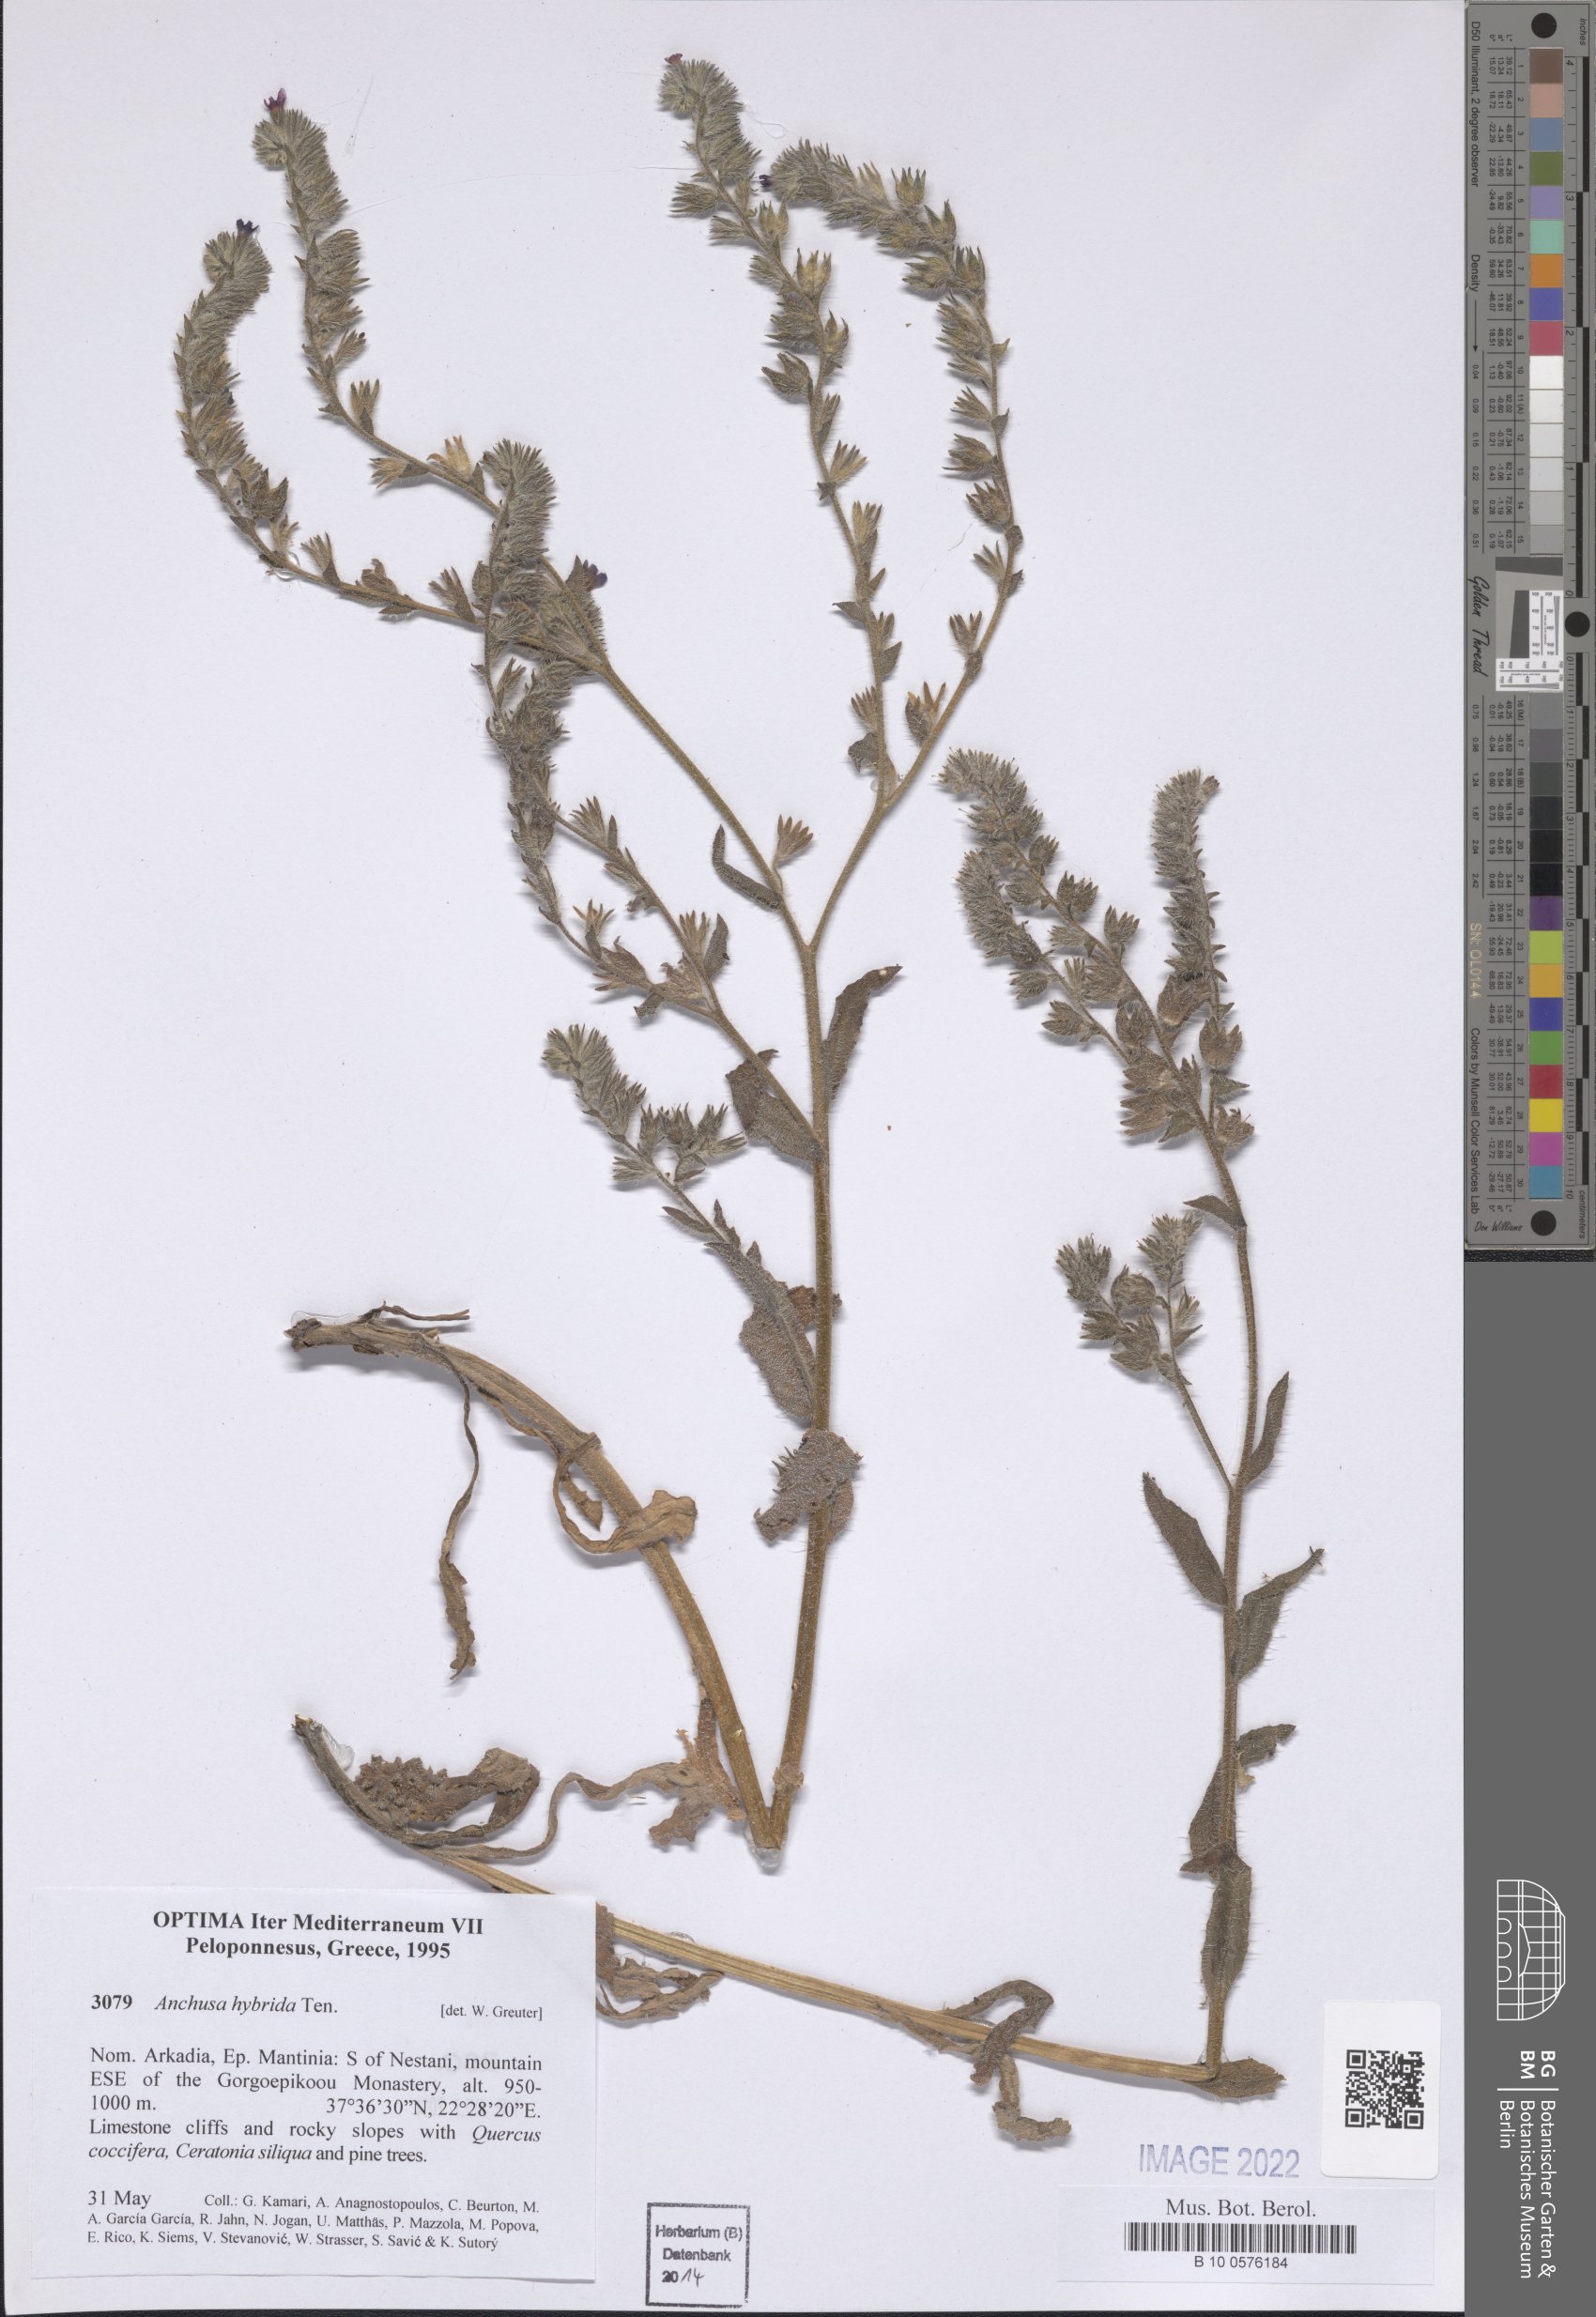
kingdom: Plantae
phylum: Tracheophyta
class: Magnoliopsida
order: Boraginales
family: Boraginaceae
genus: Anchusa
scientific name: Anchusa hybrida
